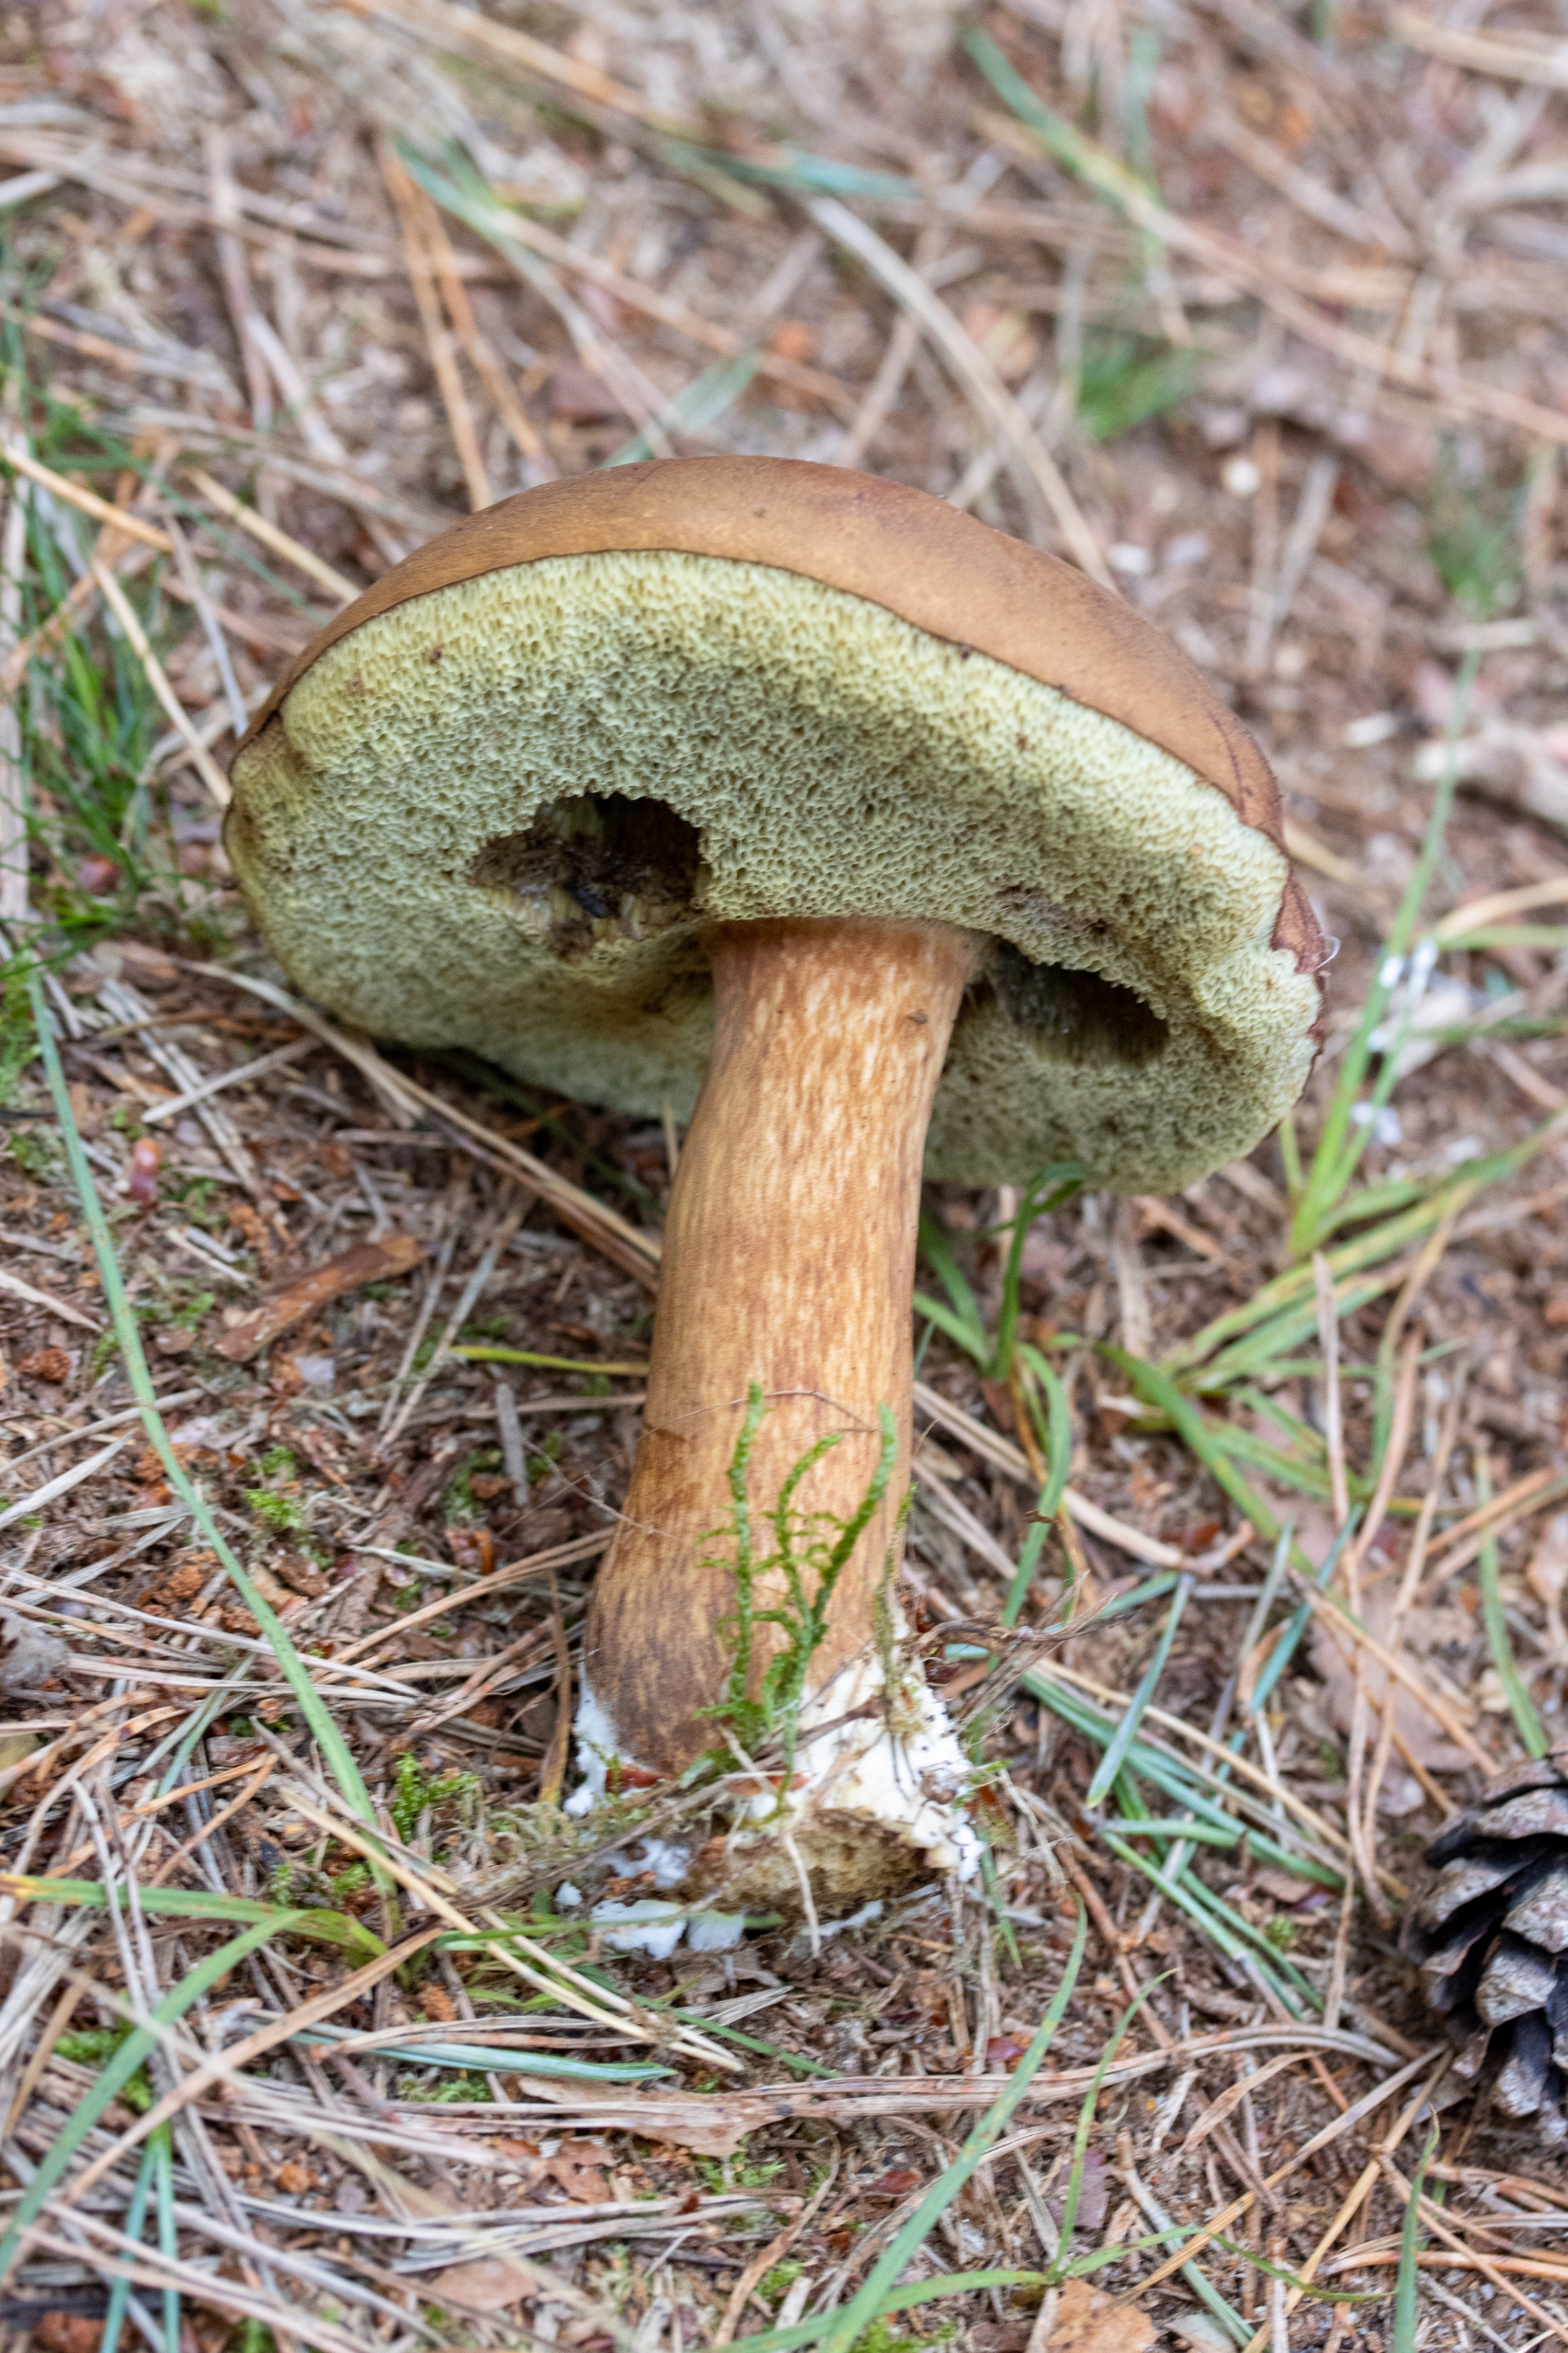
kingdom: Fungi
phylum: Basidiomycota
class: Agaricomycetes
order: Boletales
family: Boletaceae
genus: Imleria
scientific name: Imleria badia
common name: Brunstokket rørhat
